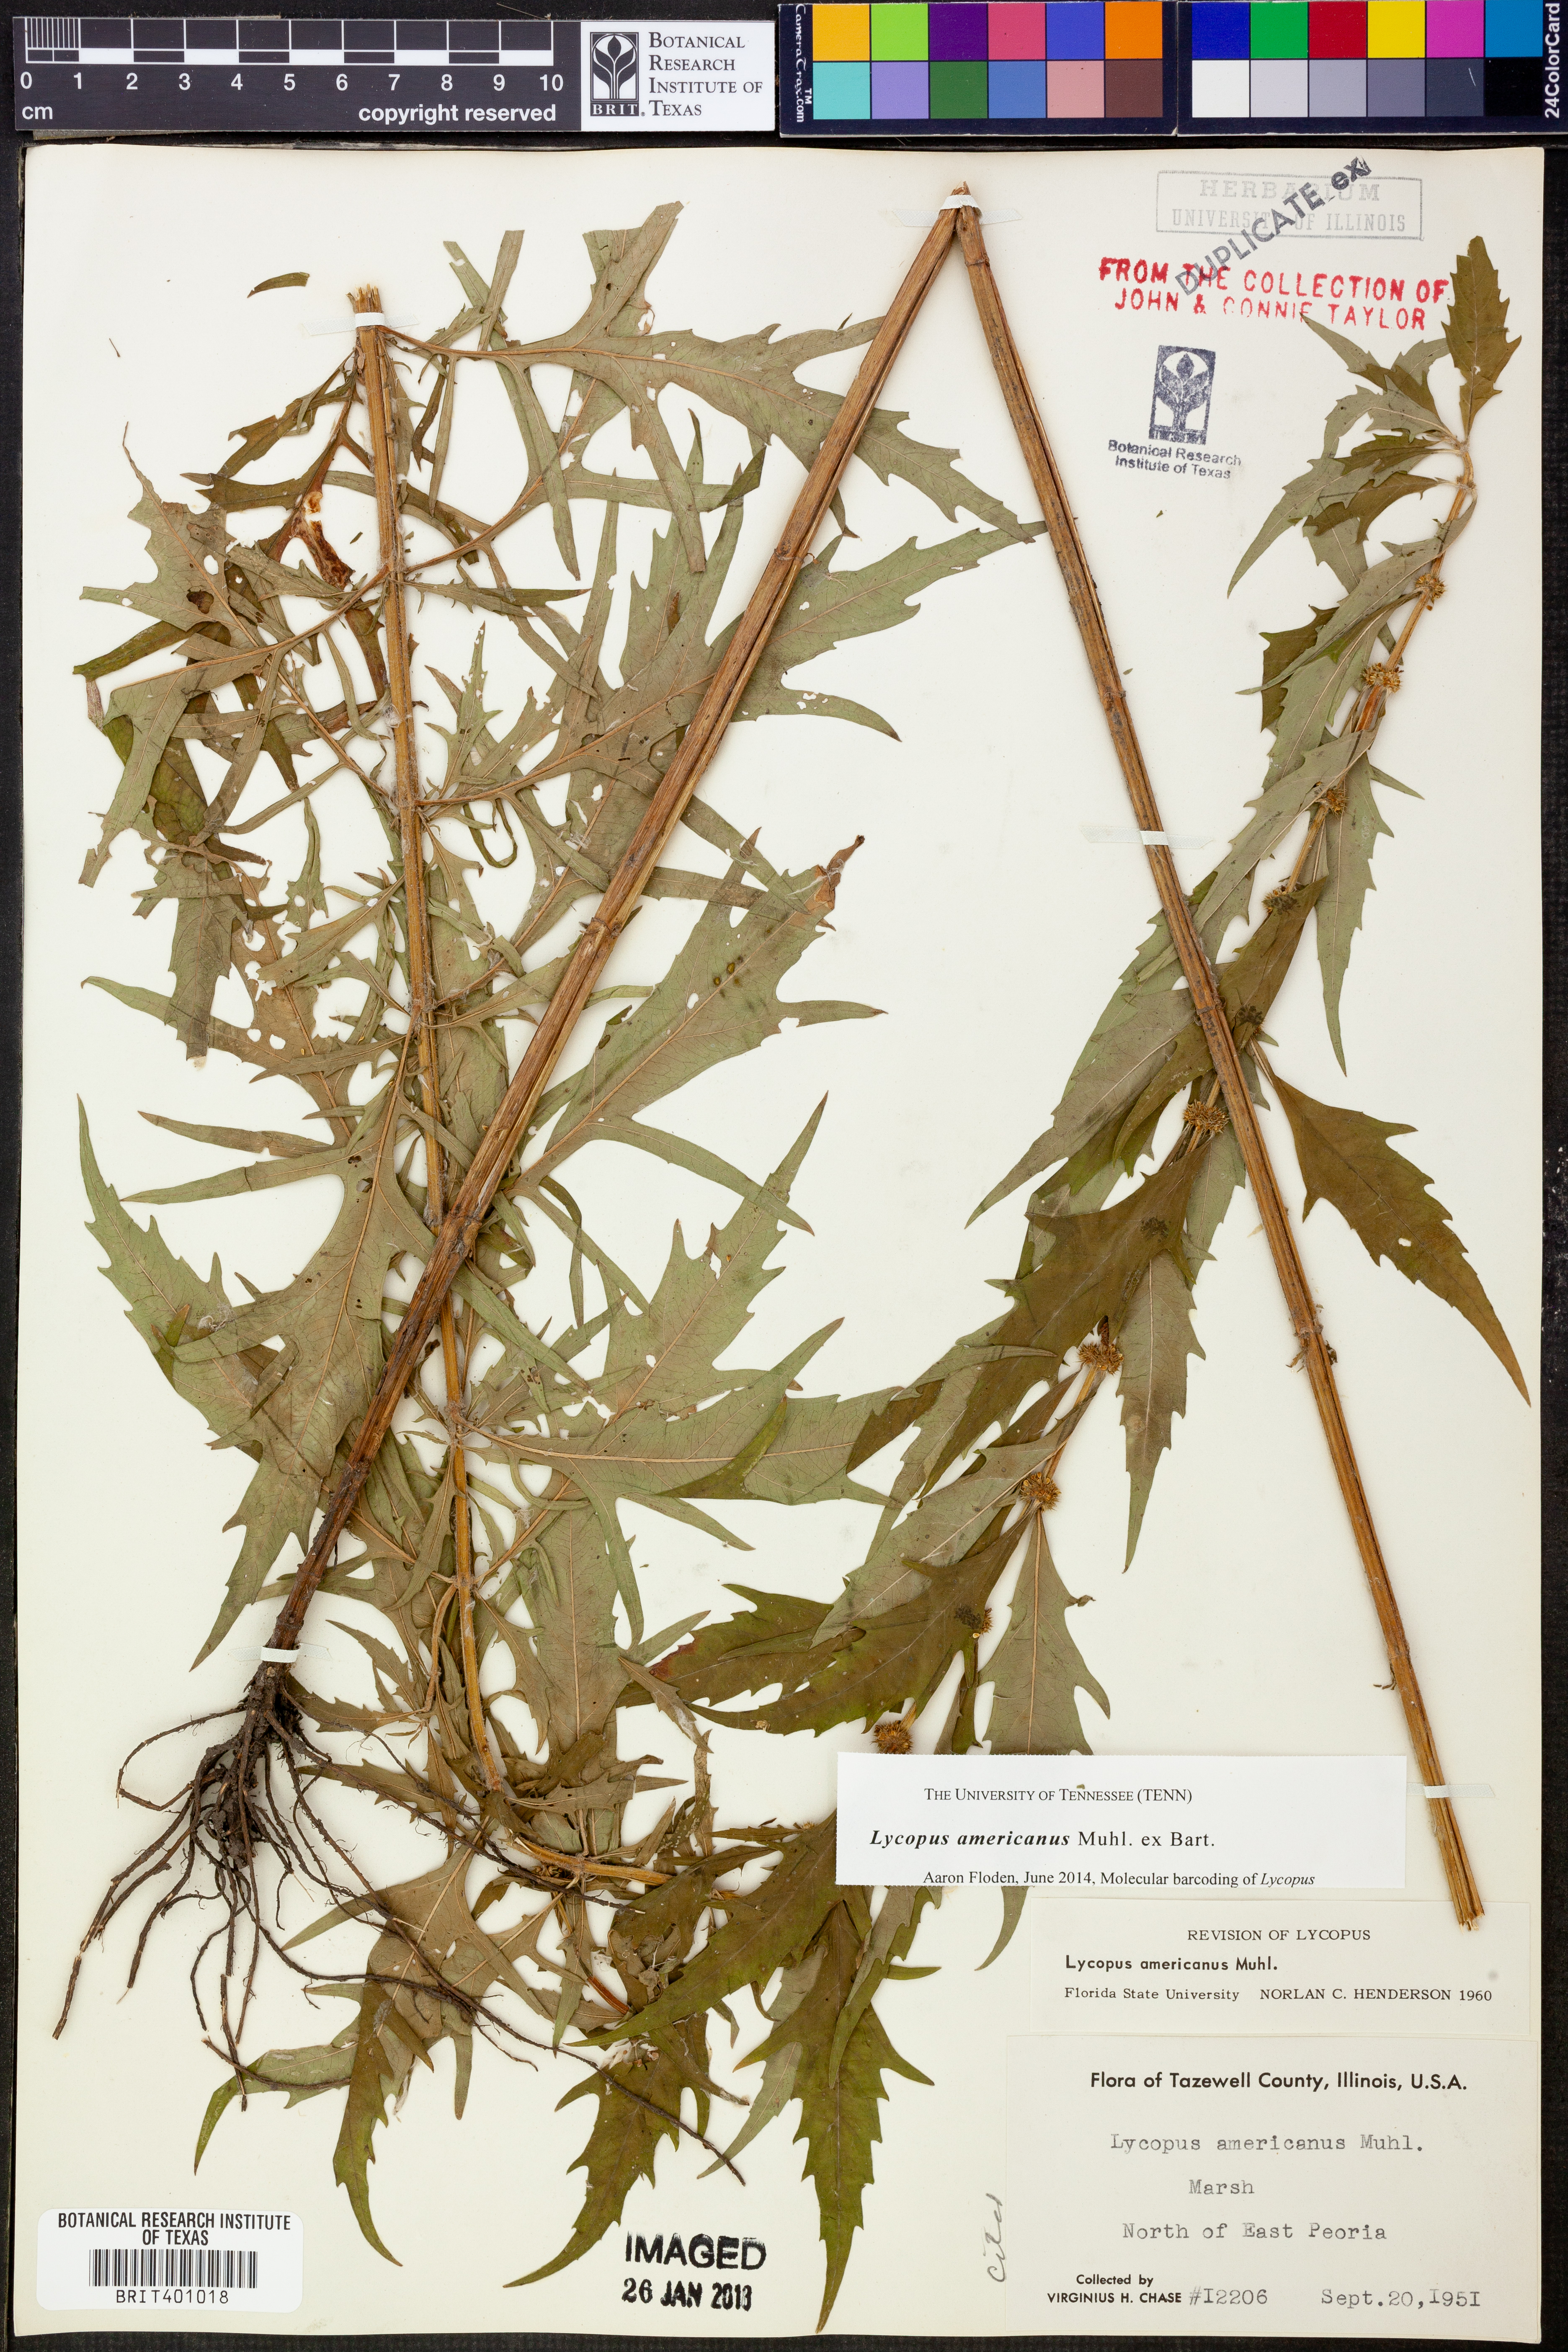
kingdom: Plantae
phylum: Tracheophyta
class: Magnoliopsida
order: Lamiales
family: Lamiaceae
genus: Lycopus
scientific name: Lycopus americanus
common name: American bugleweed
